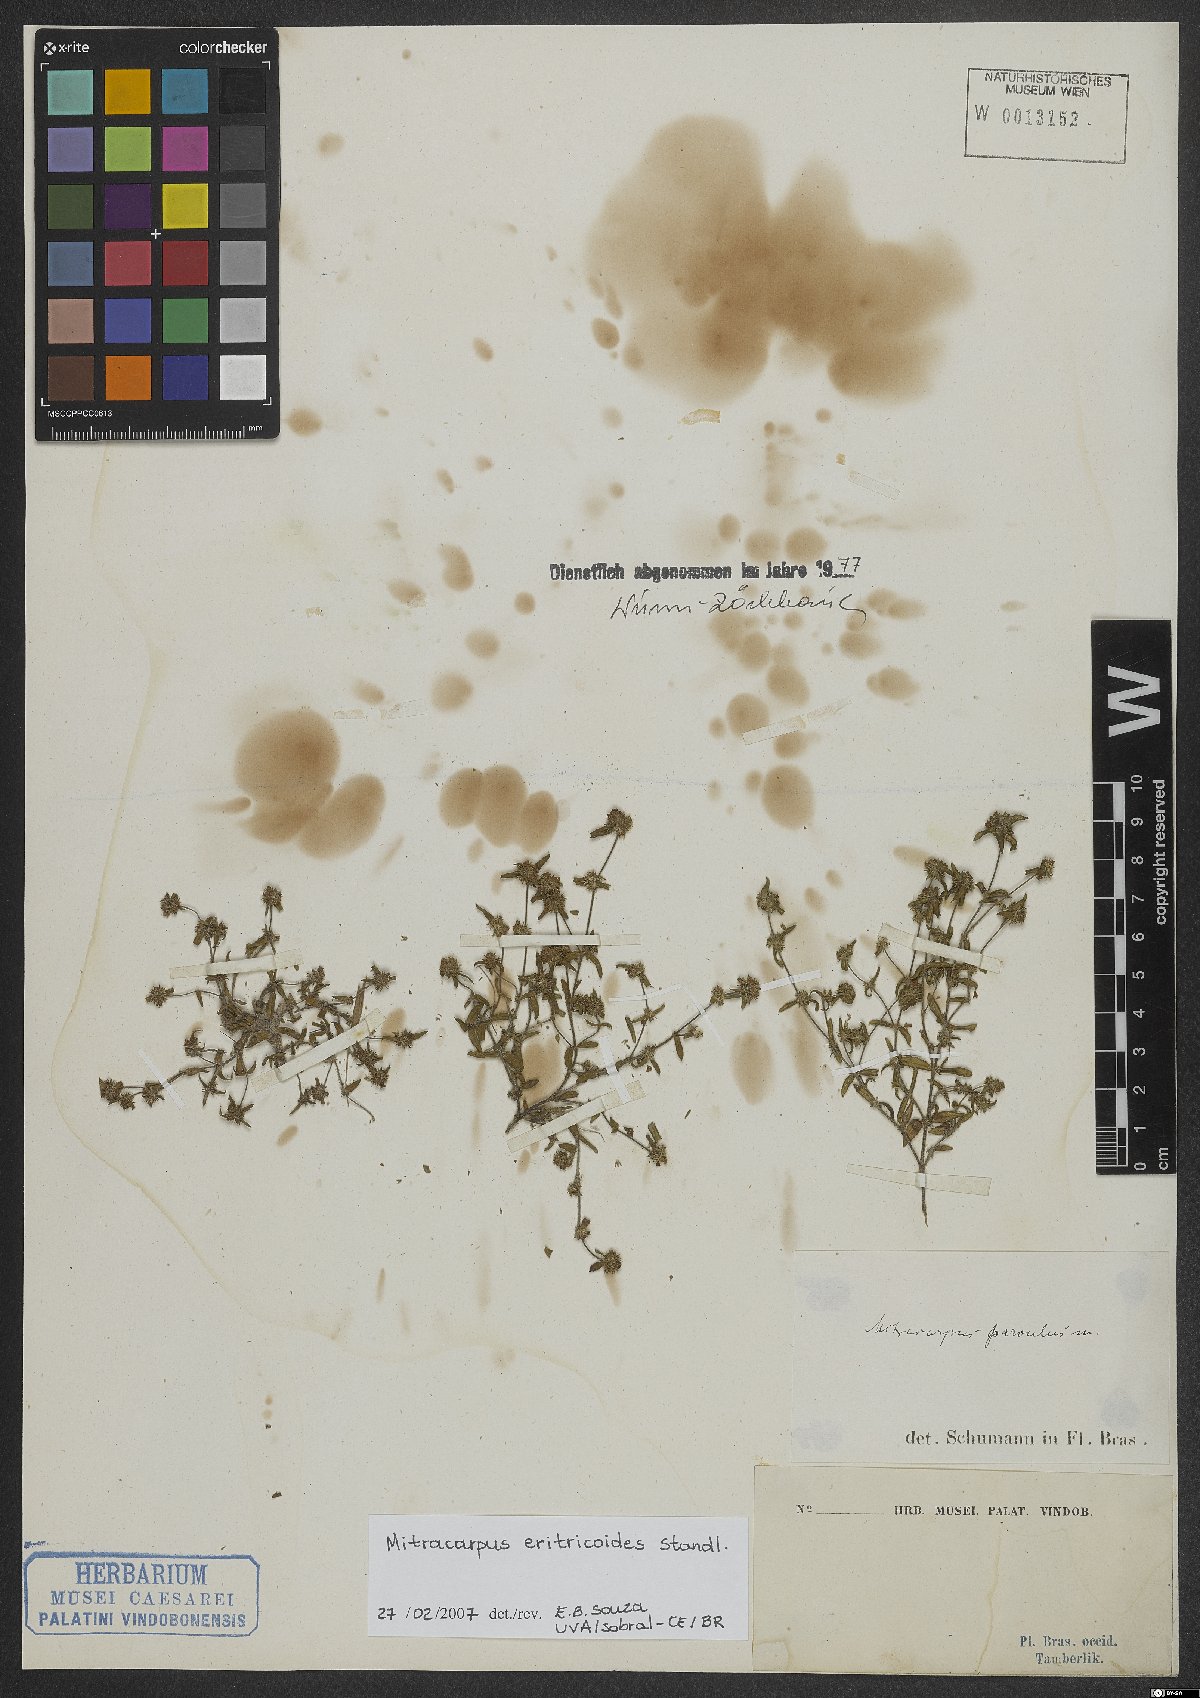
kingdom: Plantae
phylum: Tracheophyta
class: Magnoliopsida
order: Gentianales
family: Rubiaceae
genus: Mitracarpus
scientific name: Mitracarpus eritrichoides
